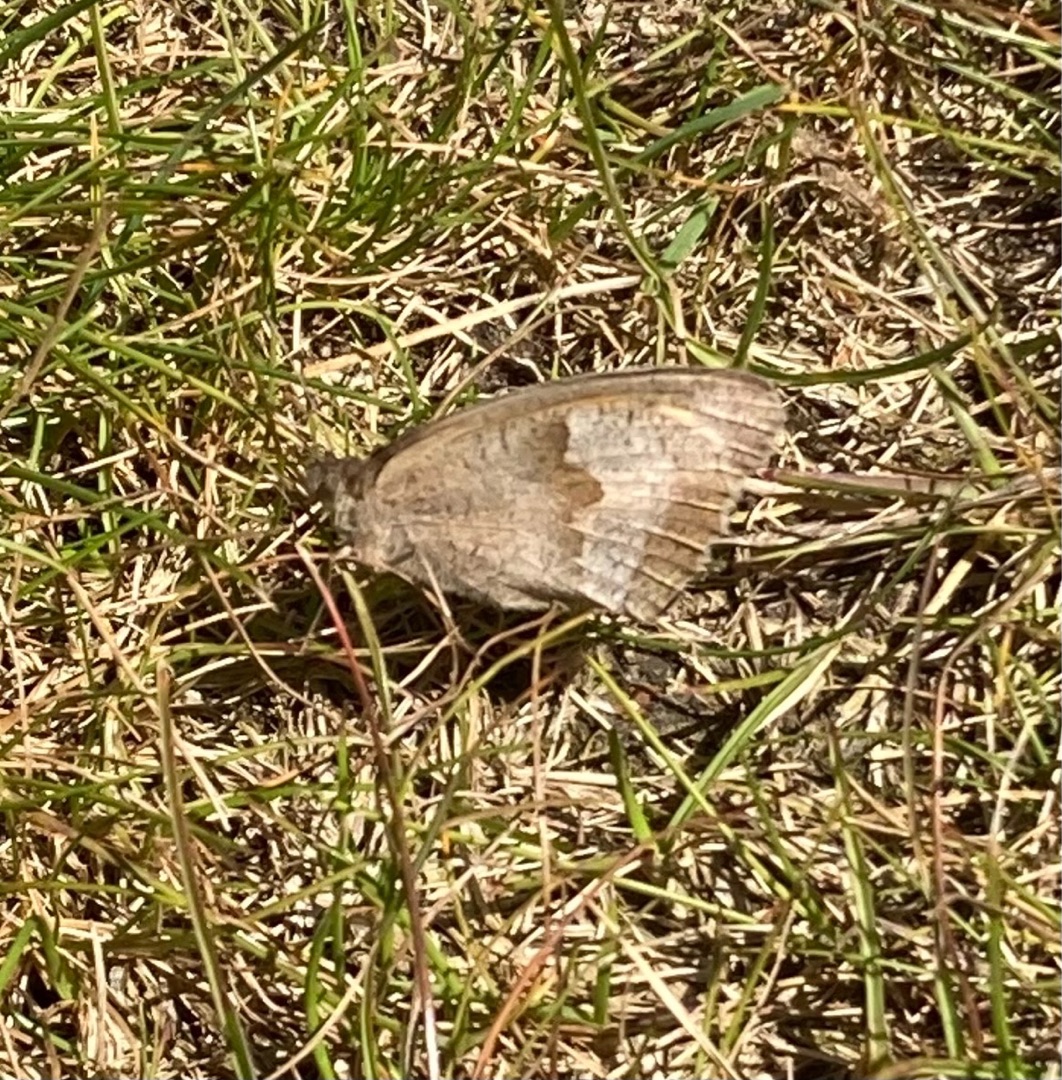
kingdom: Animalia
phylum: Arthropoda
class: Insecta
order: Lepidoptera
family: Nymphalidae
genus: Maniola
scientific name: Maniola jurtina
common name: Græsrandøje
